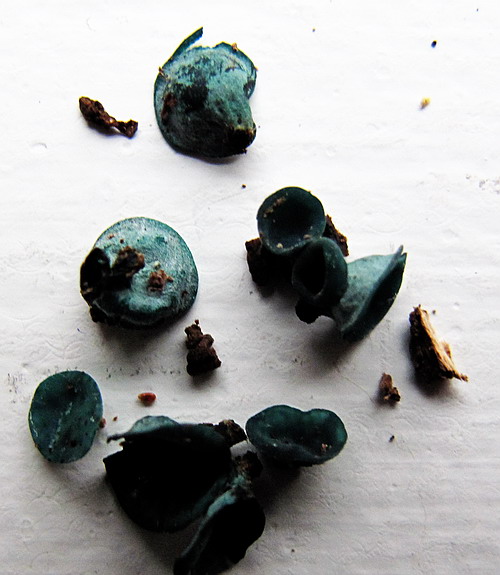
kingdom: Fungi
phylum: Ascomycota
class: Leotiomycetes
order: Helotiales
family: Chlorociboriaceae
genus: Chlorociboria
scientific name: Chlorociboria aeruginascens
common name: almindelig grønskive
